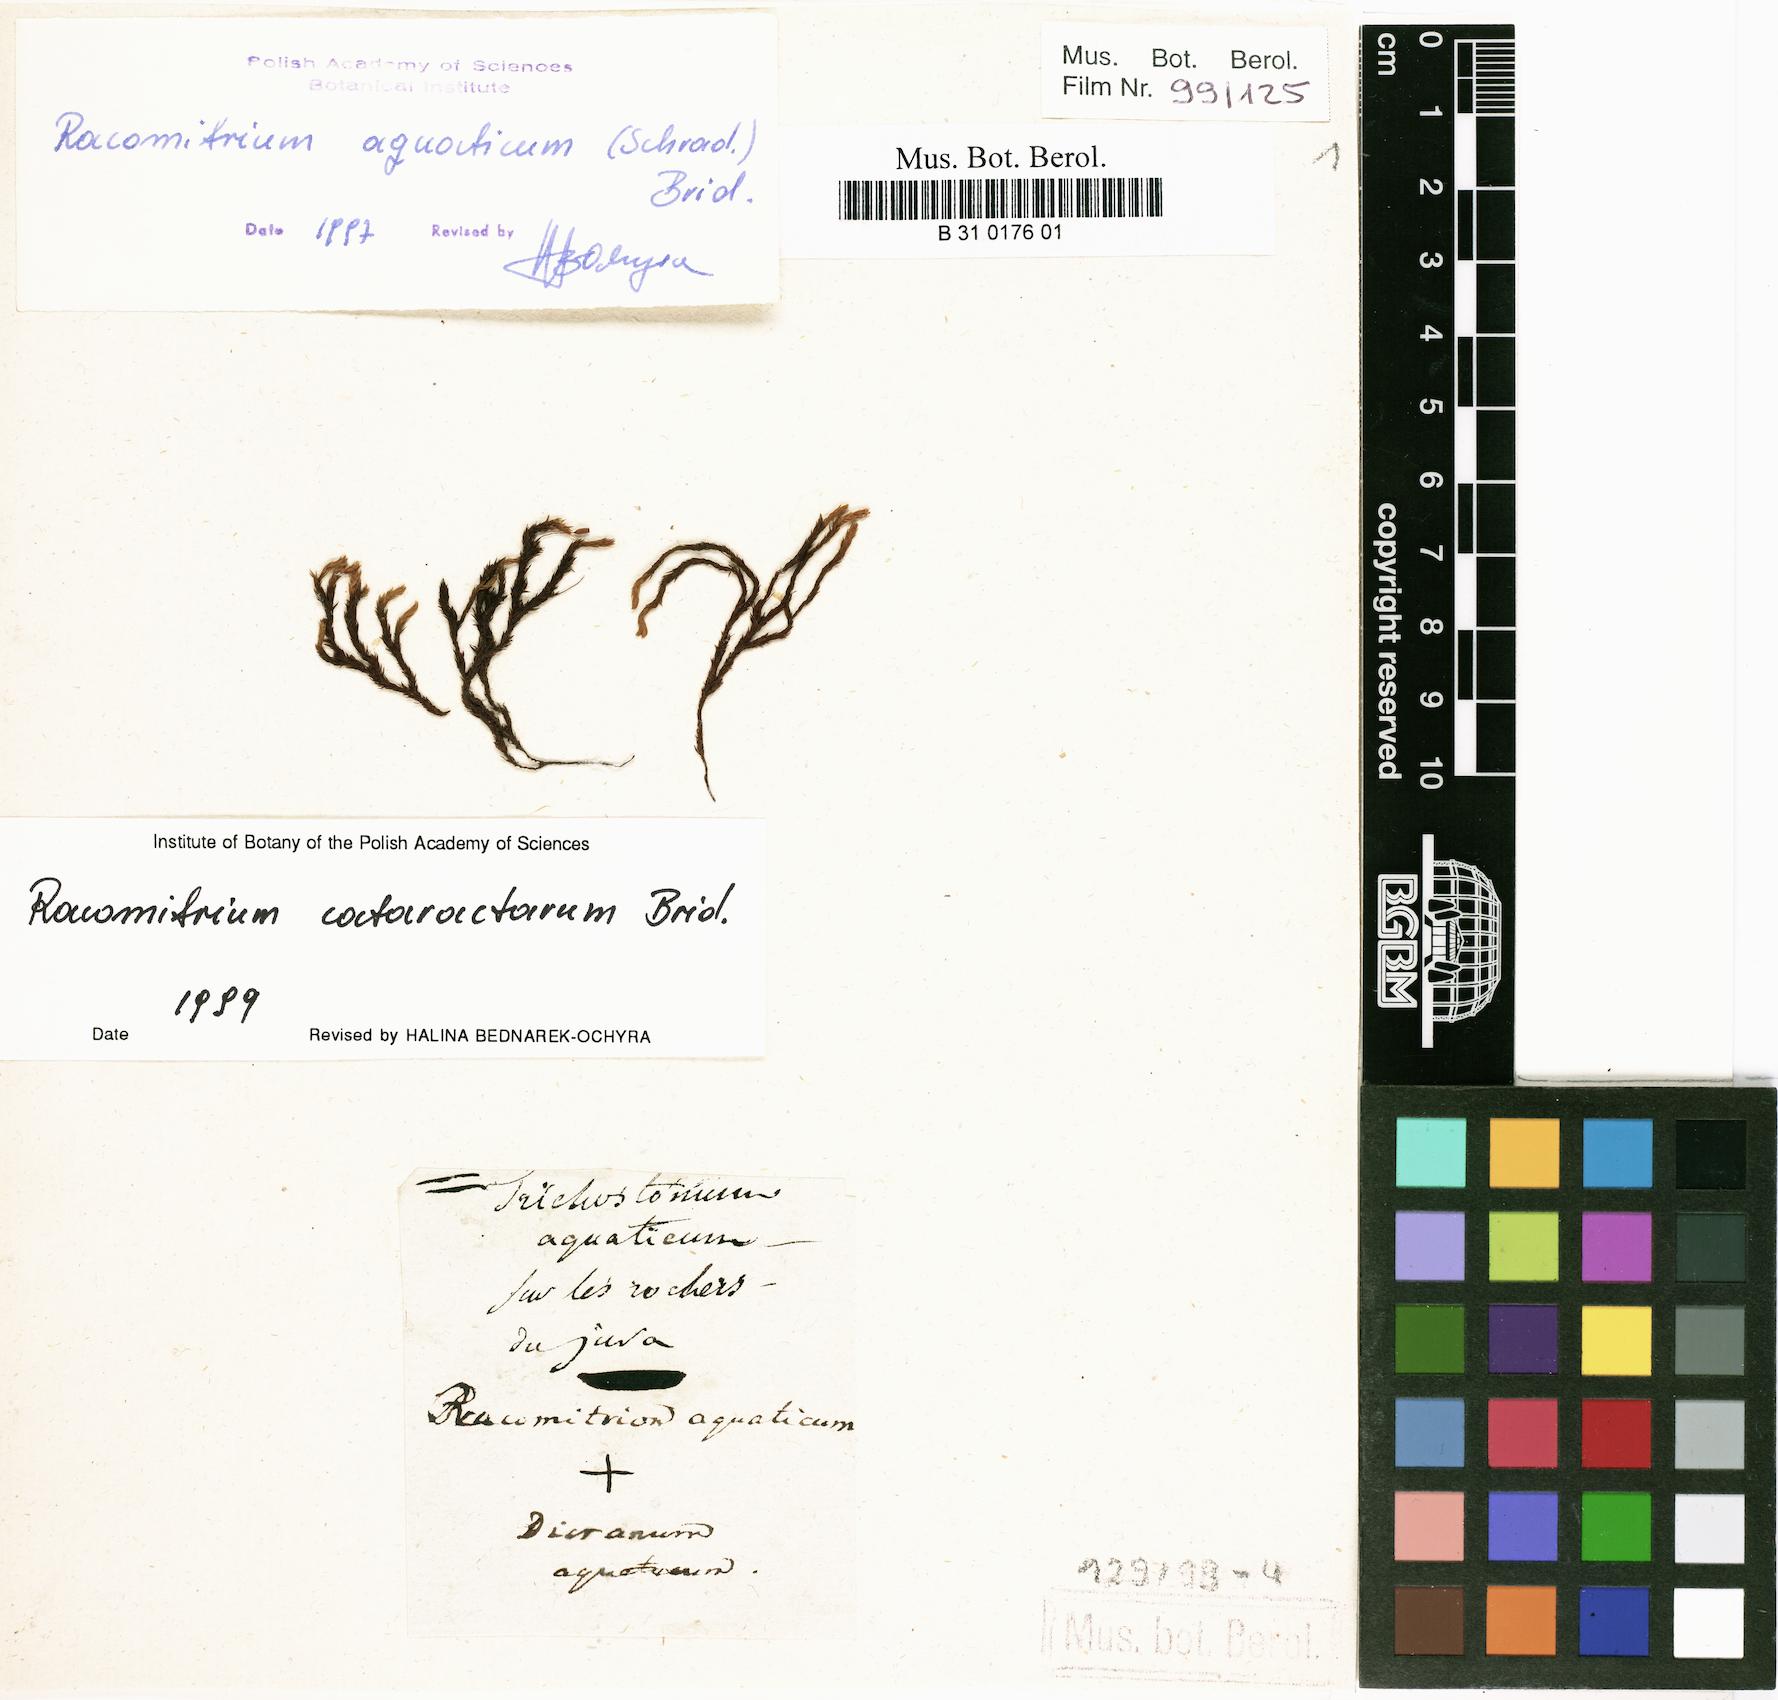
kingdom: Plantae
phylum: Bryophyta
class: Bryopsida
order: Grimmiales
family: Grimmiaceae
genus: Codriophorus
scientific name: Codriophorus aquaticus
